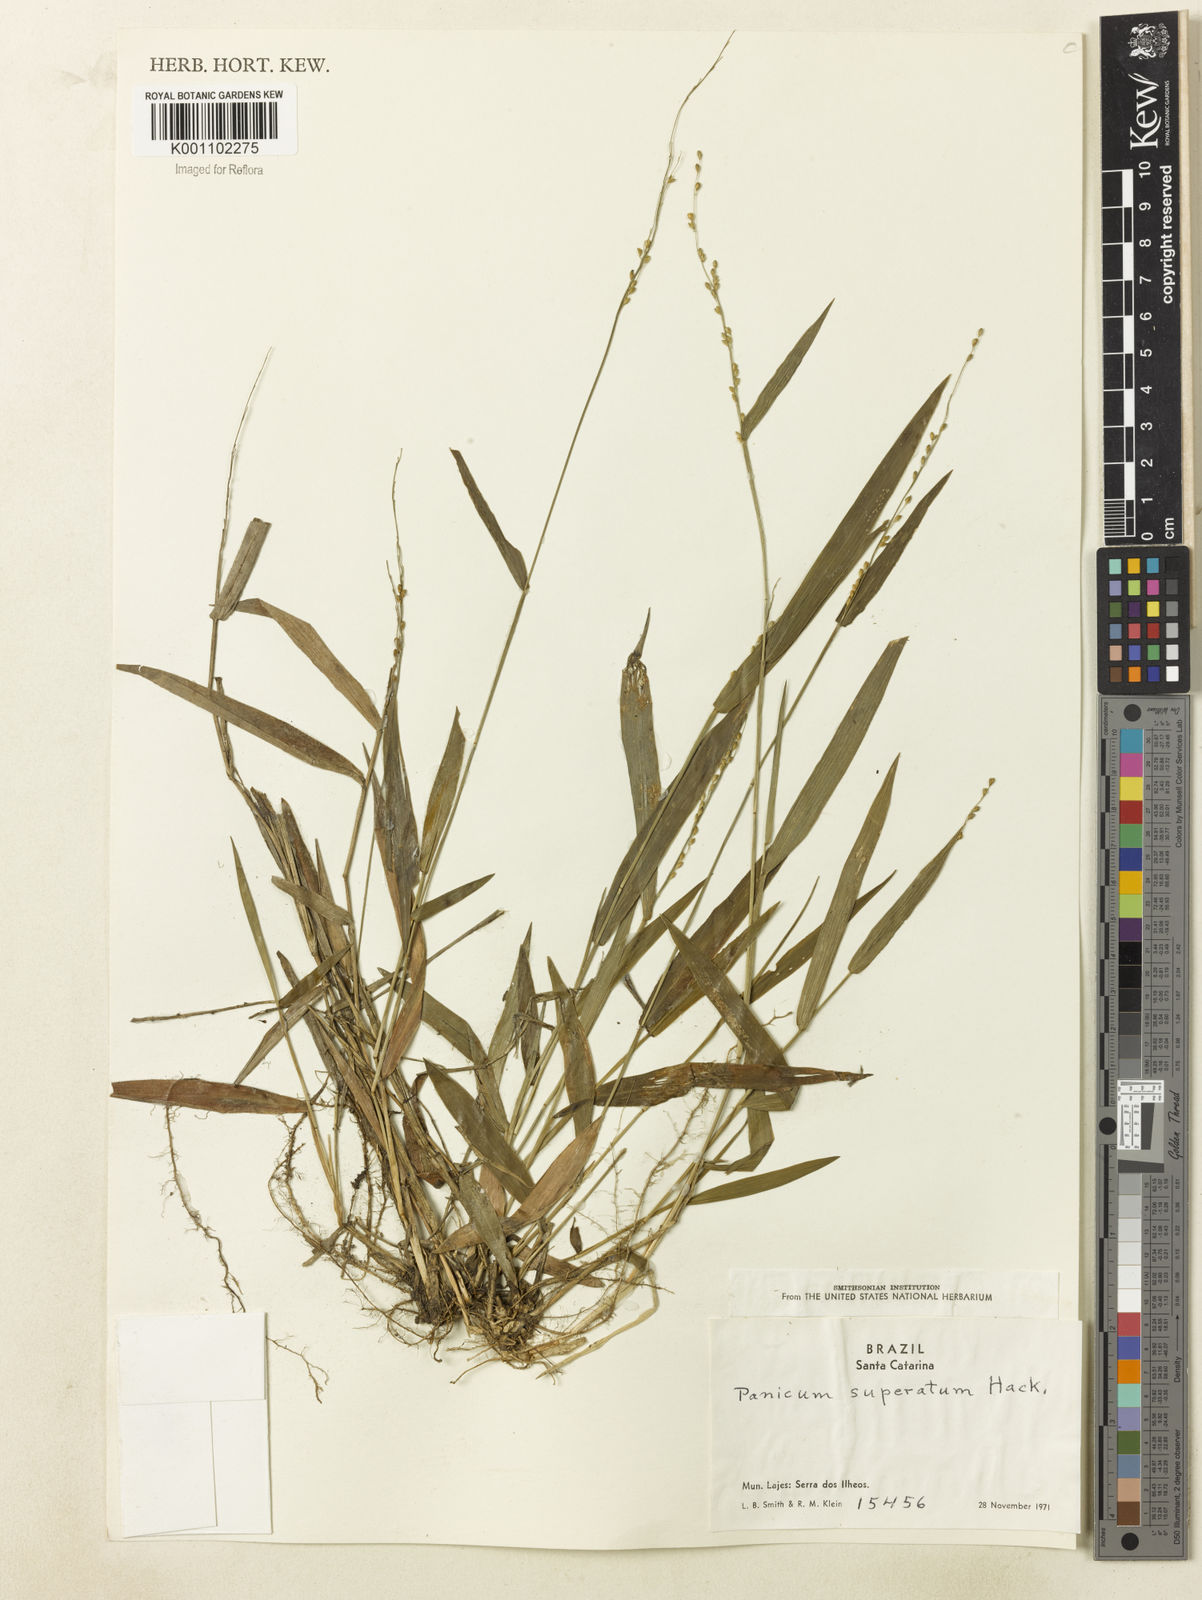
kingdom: Plantae
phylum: Tracheophyta
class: Liliopsida
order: Poales
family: Poaceae
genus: Dichanthelium
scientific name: Dichanthelium superatum
